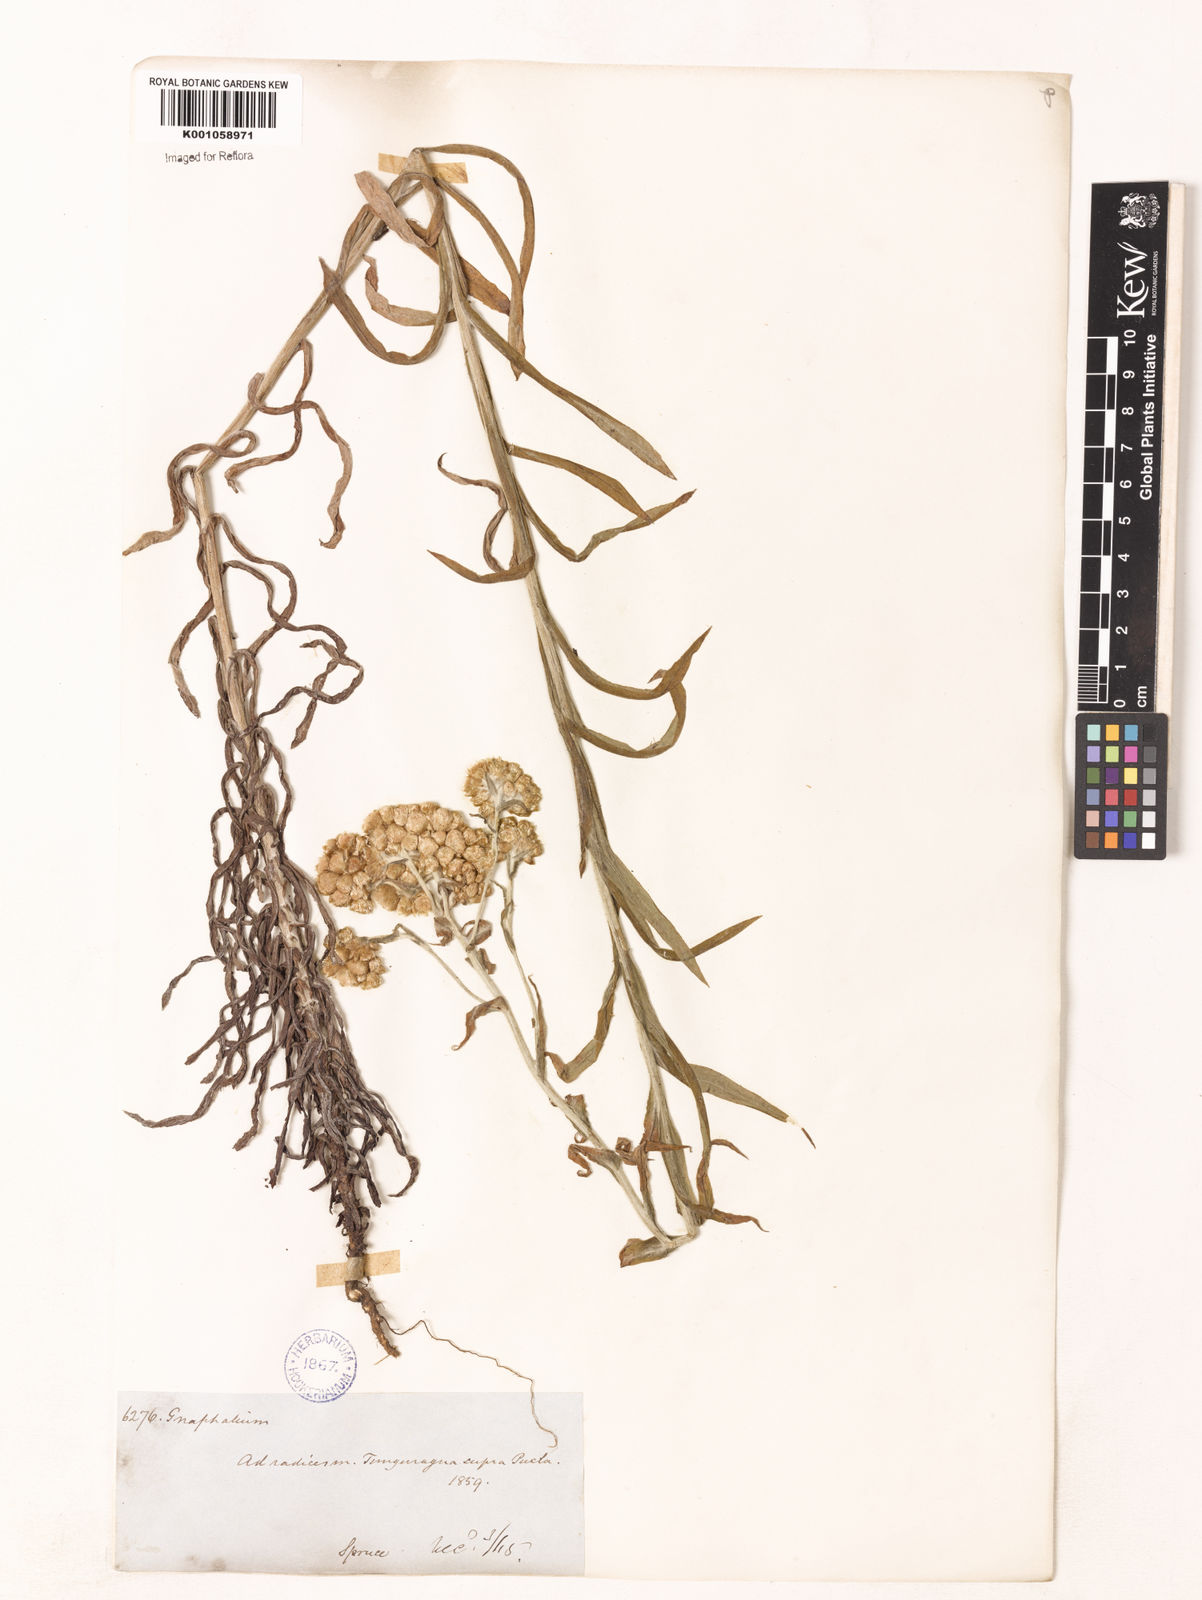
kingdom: Plantae
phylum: Tracheophyta
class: Magnoliopsida
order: Asterales
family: Asteraceae
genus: Gnaphalium
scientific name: Gnaphalium
